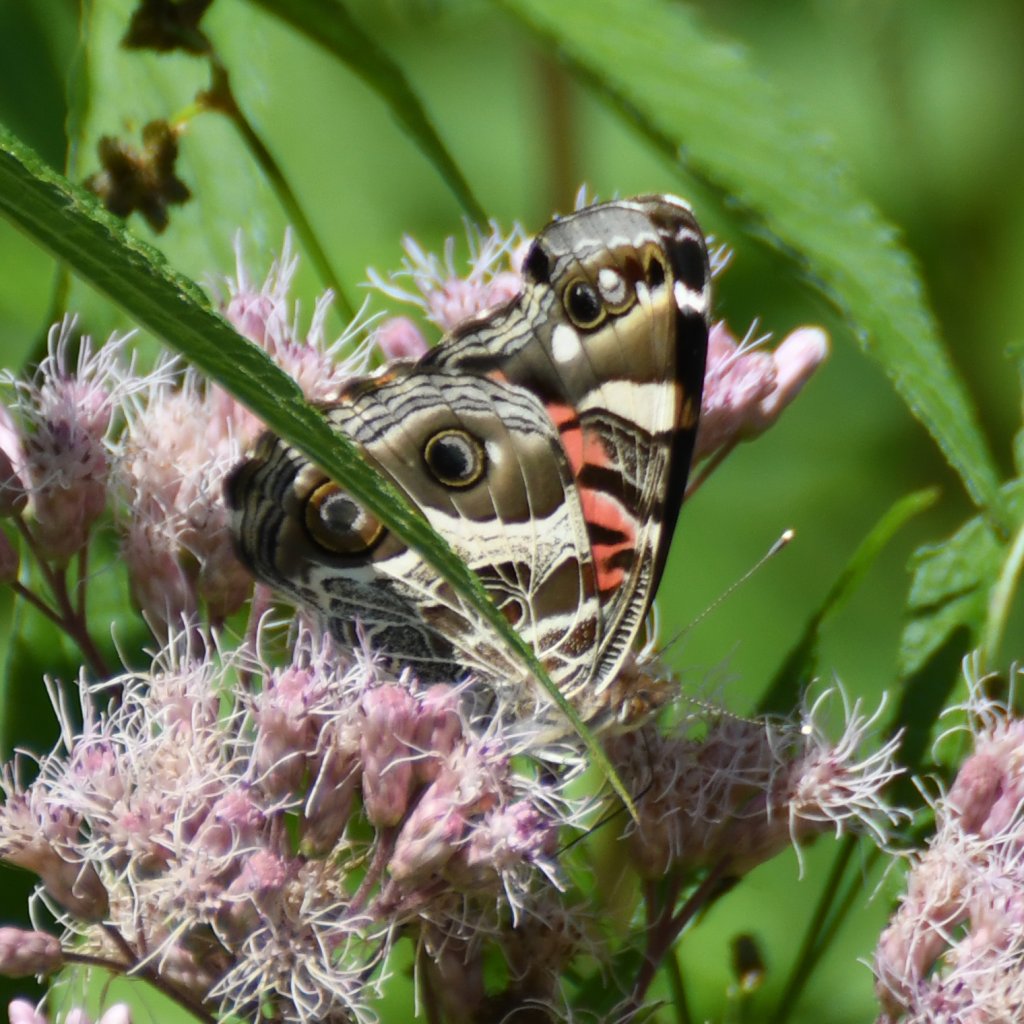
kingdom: Animalia
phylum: Arthropoda
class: Insecta
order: Lepidoptera
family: Nymphalidae
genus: Vanessa
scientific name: Vanessa virginiensis
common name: American Lady
